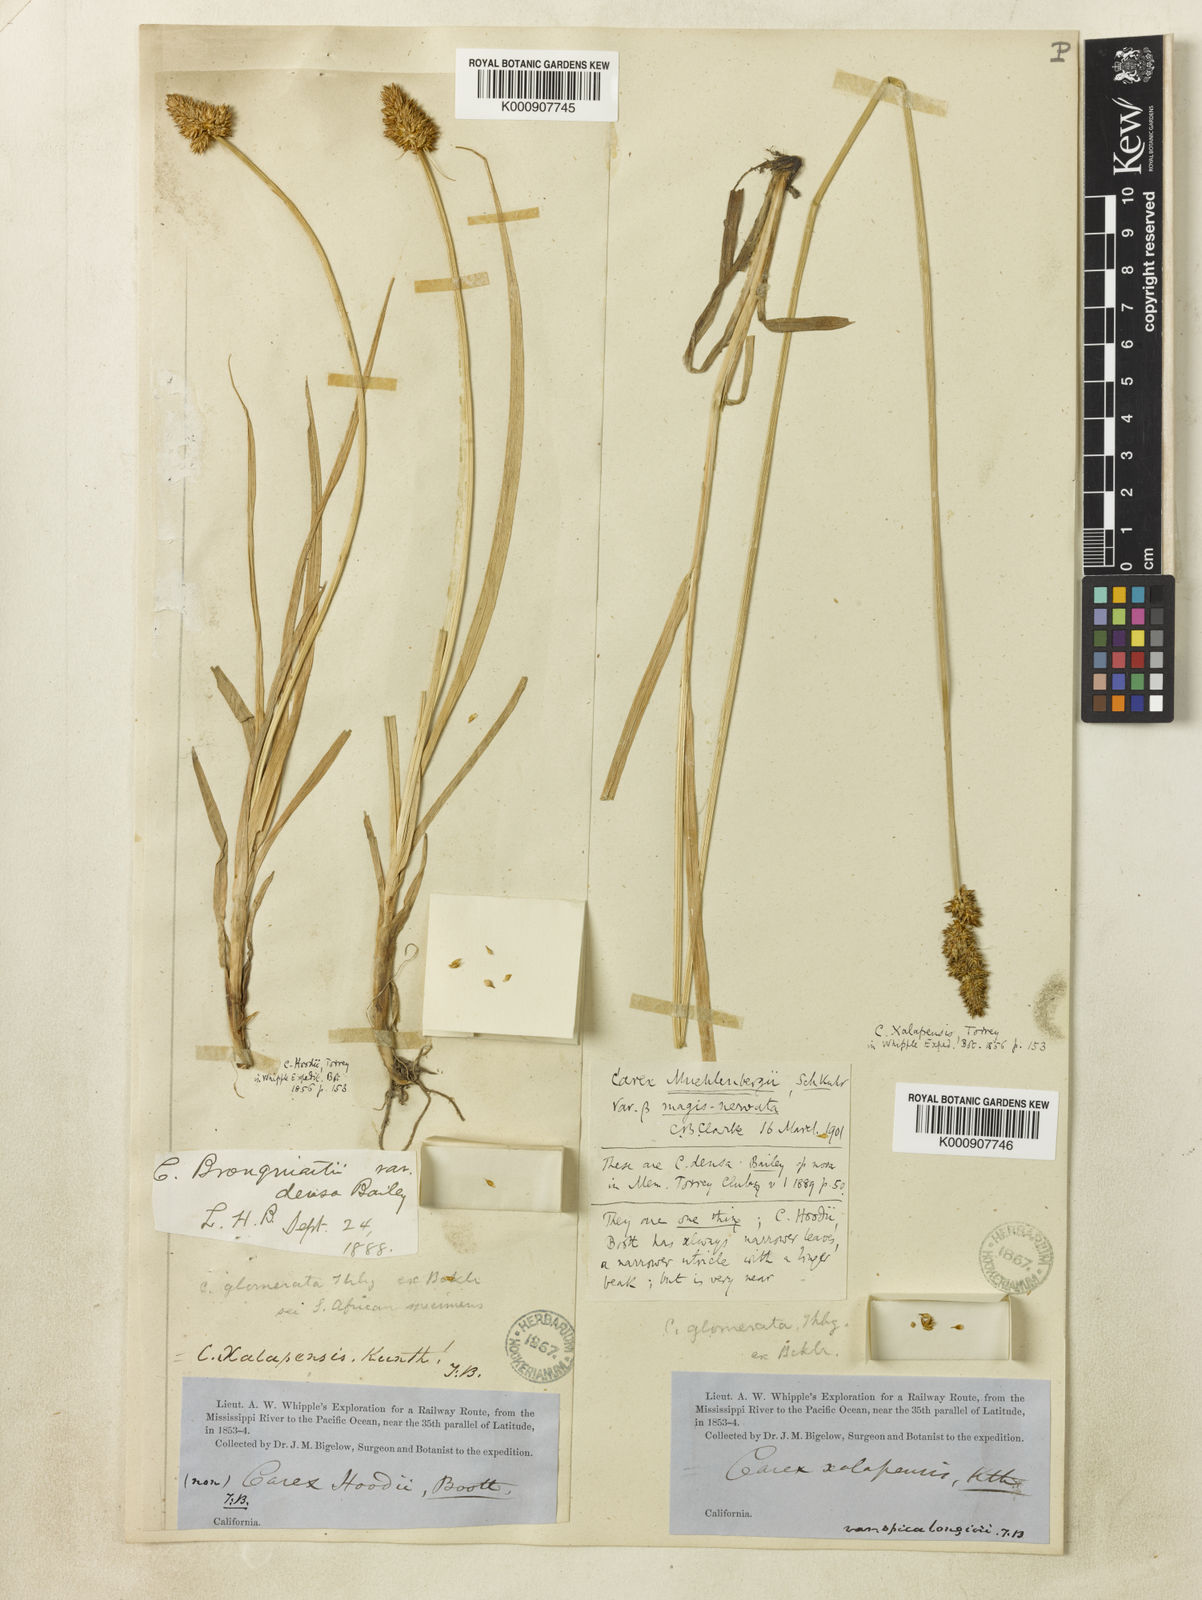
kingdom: Plantae
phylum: Tracheophyta
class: Liliopsida
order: Poales
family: Cyperaceae
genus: Carex
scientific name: Carex densa
